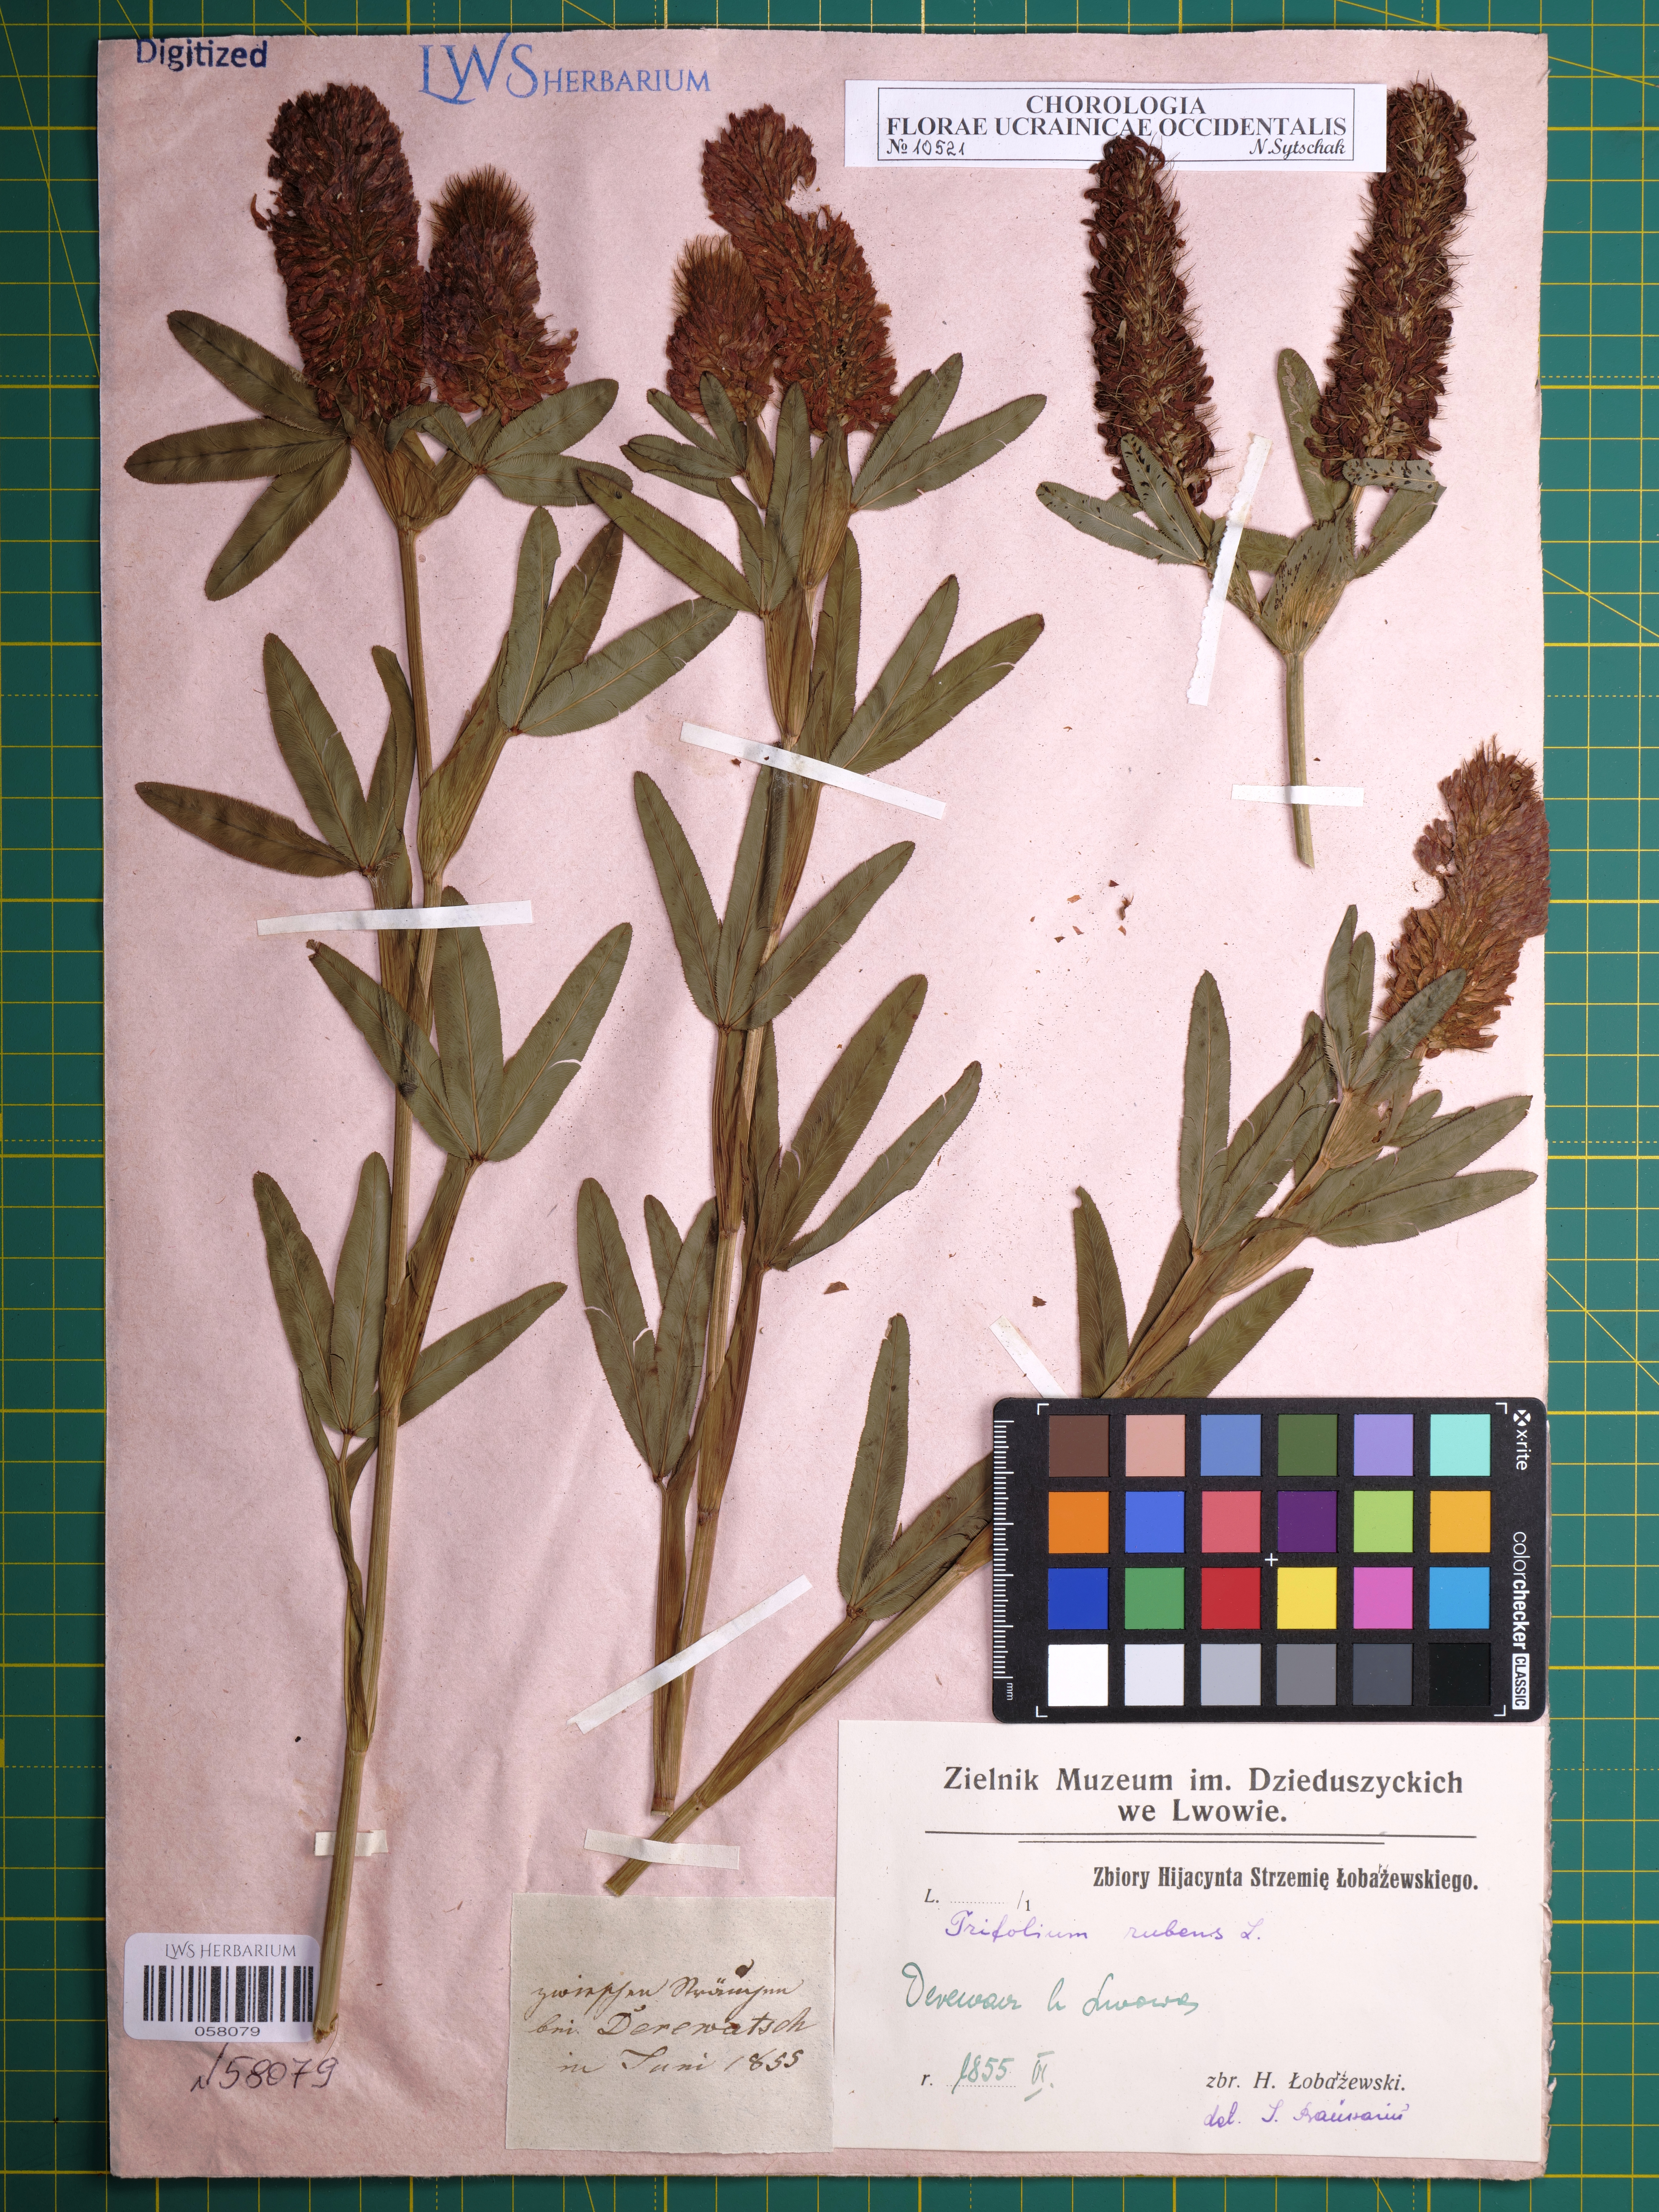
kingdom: Plantae
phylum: Tracheophyta
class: Magnoliopsida
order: Fabales
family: Fabaceae
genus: Trifolium
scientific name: Trifolium rubens
